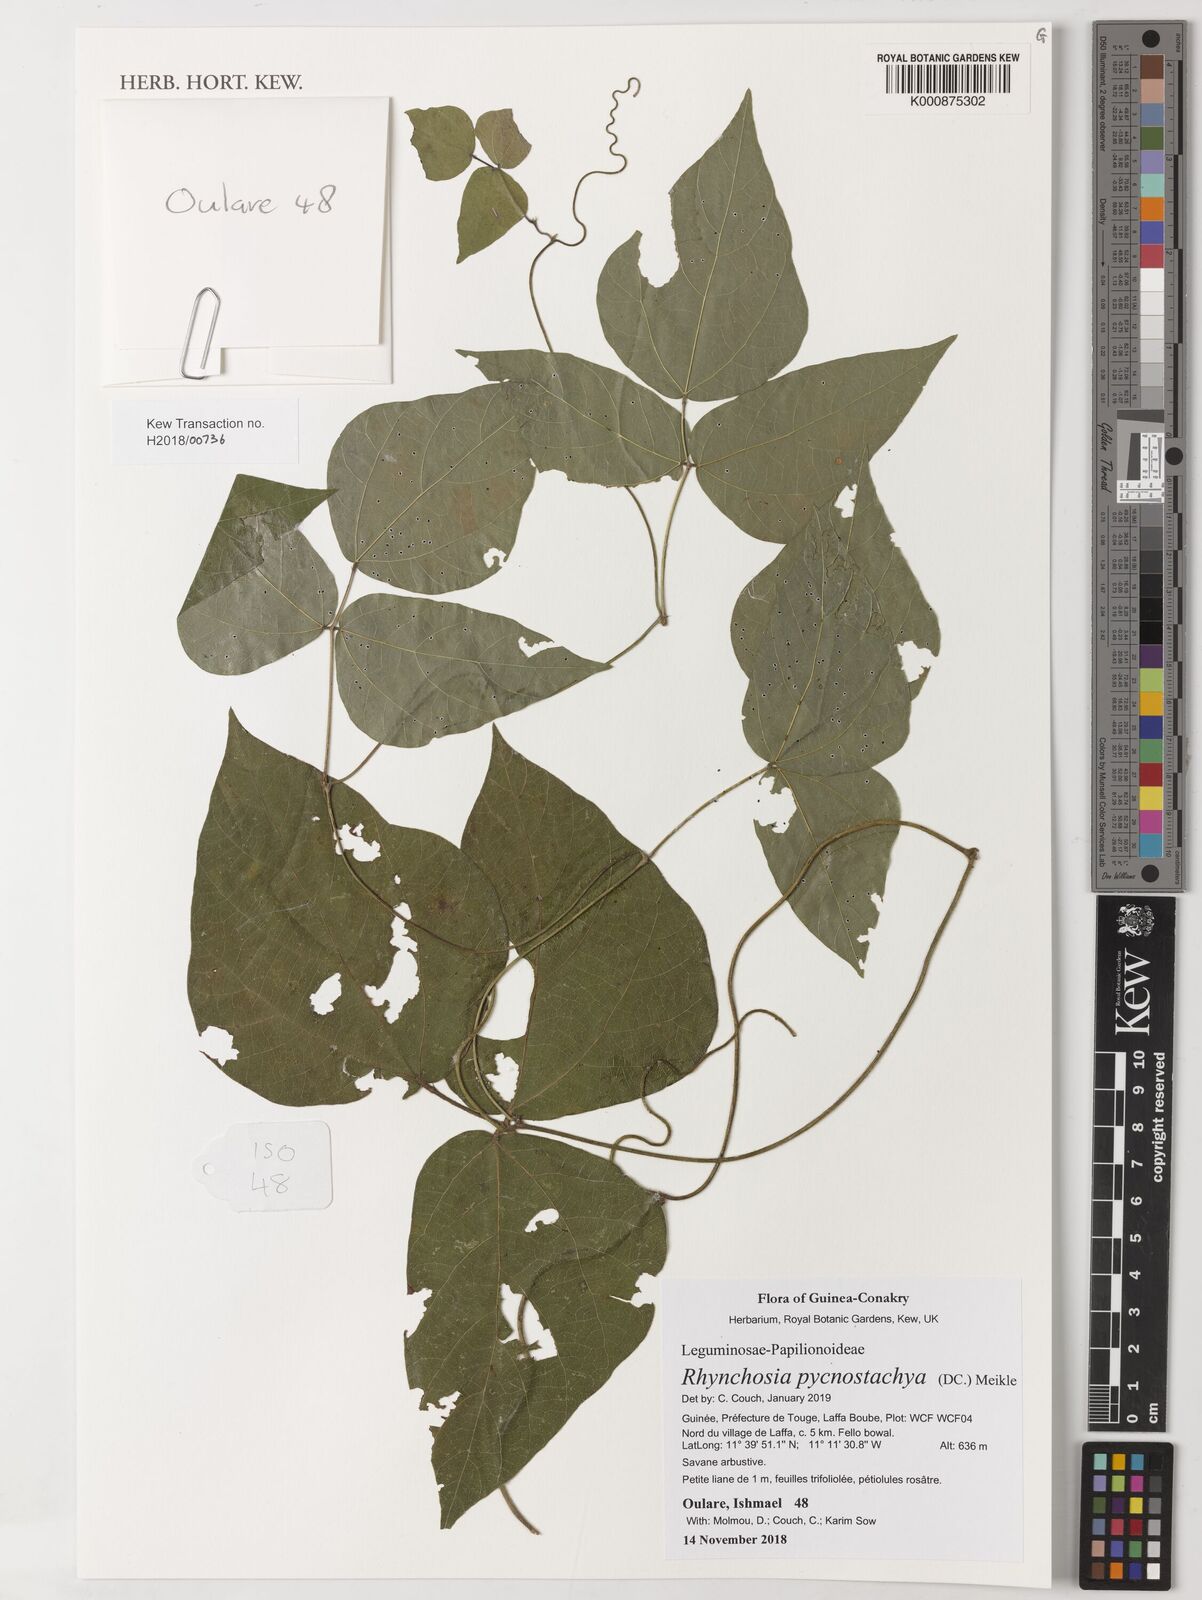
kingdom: Plantae
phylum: Tracheophyta
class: Magnoliopsida
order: Fabales
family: Fabaceae
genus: Rhynchosia
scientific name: Rhynchosia pycnostachya
